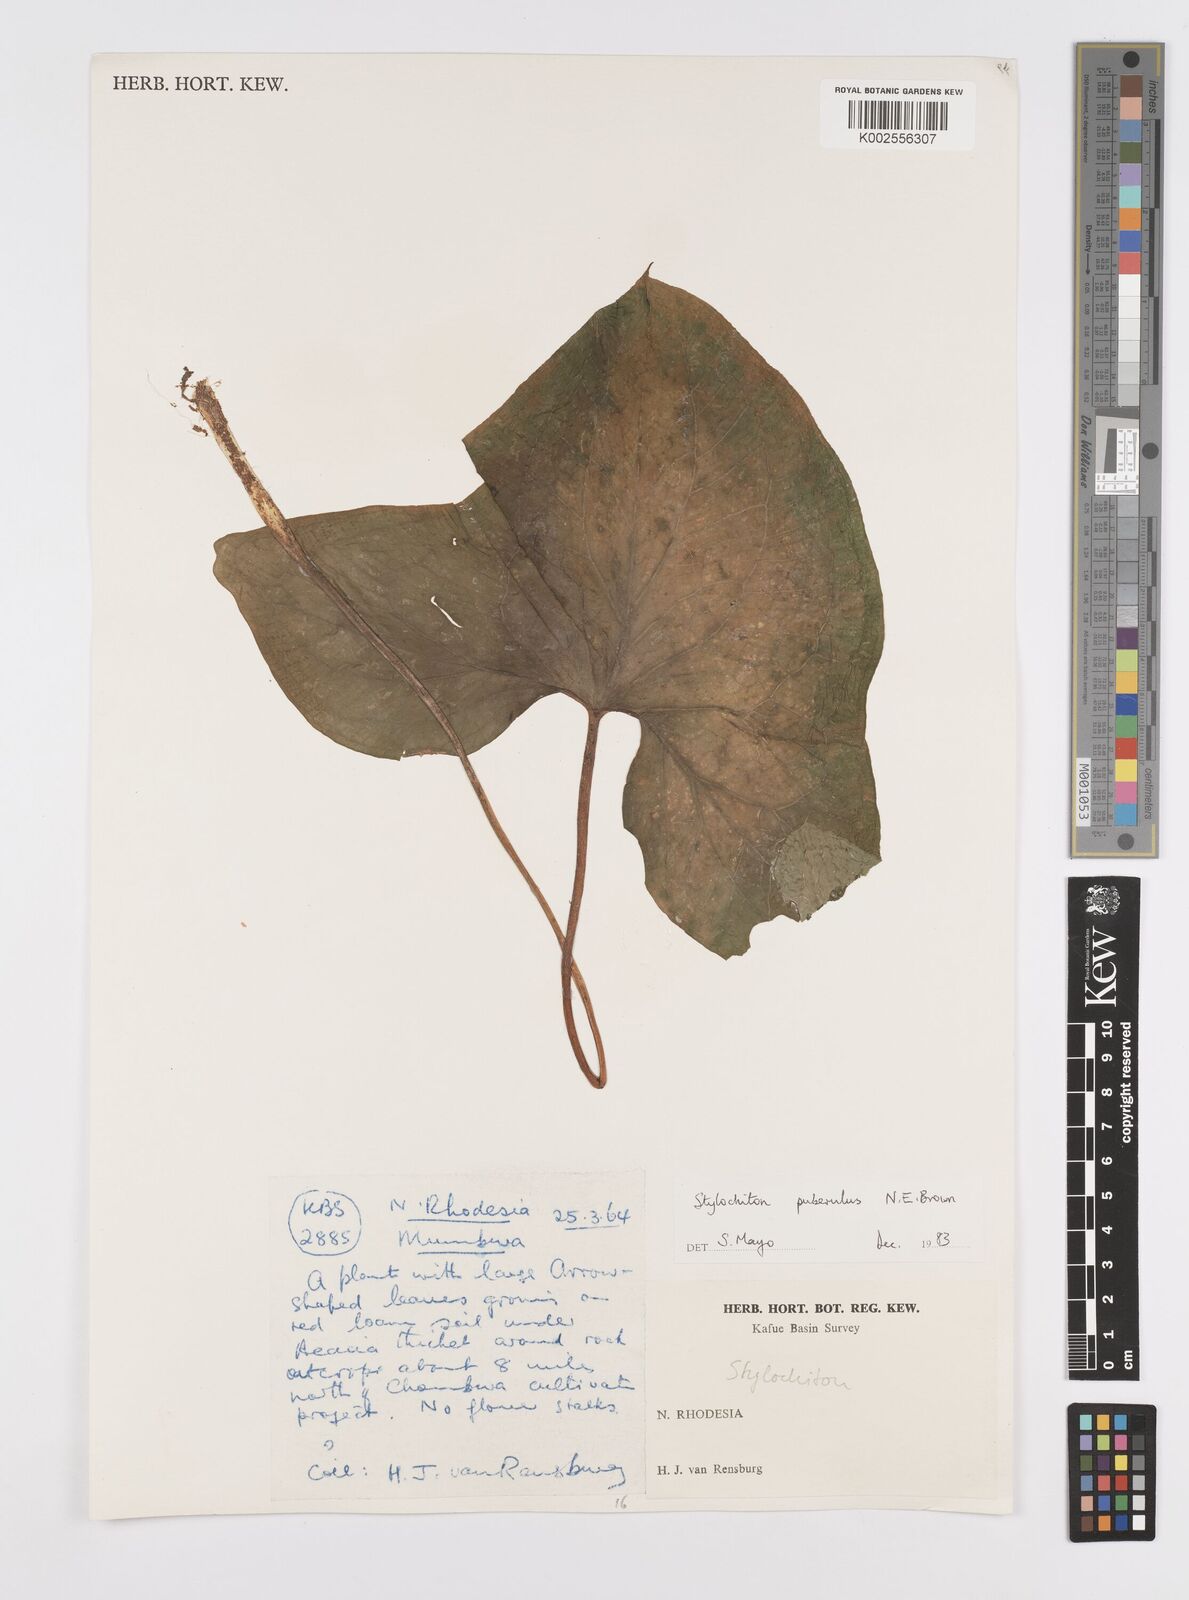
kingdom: Plantae
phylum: Tracheophyta
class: Liliopsida
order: Alismatales
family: Araceae
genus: Stylochaeton
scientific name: Stylochaeton puberulum
